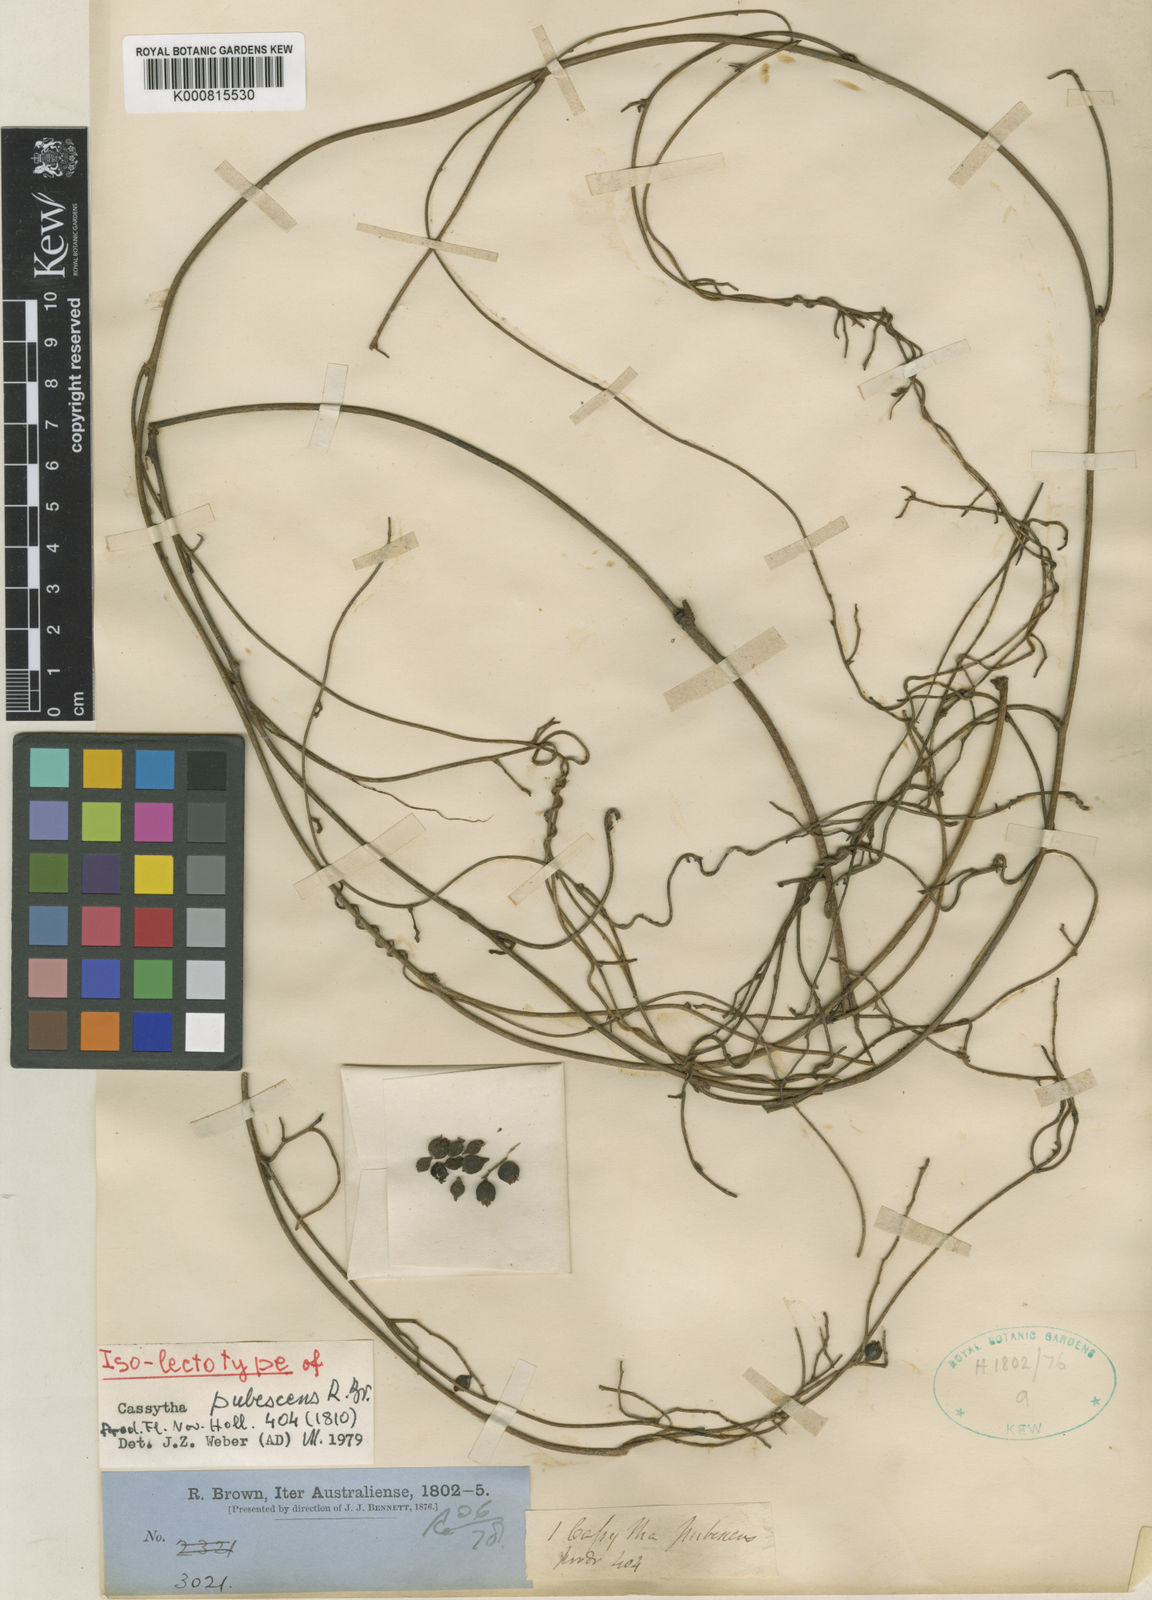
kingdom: Plantae
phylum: Tracheophyta
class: Magnoliopsida
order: Laurales
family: Lauraceae
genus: Cassytha
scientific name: Cassytha pubescens
